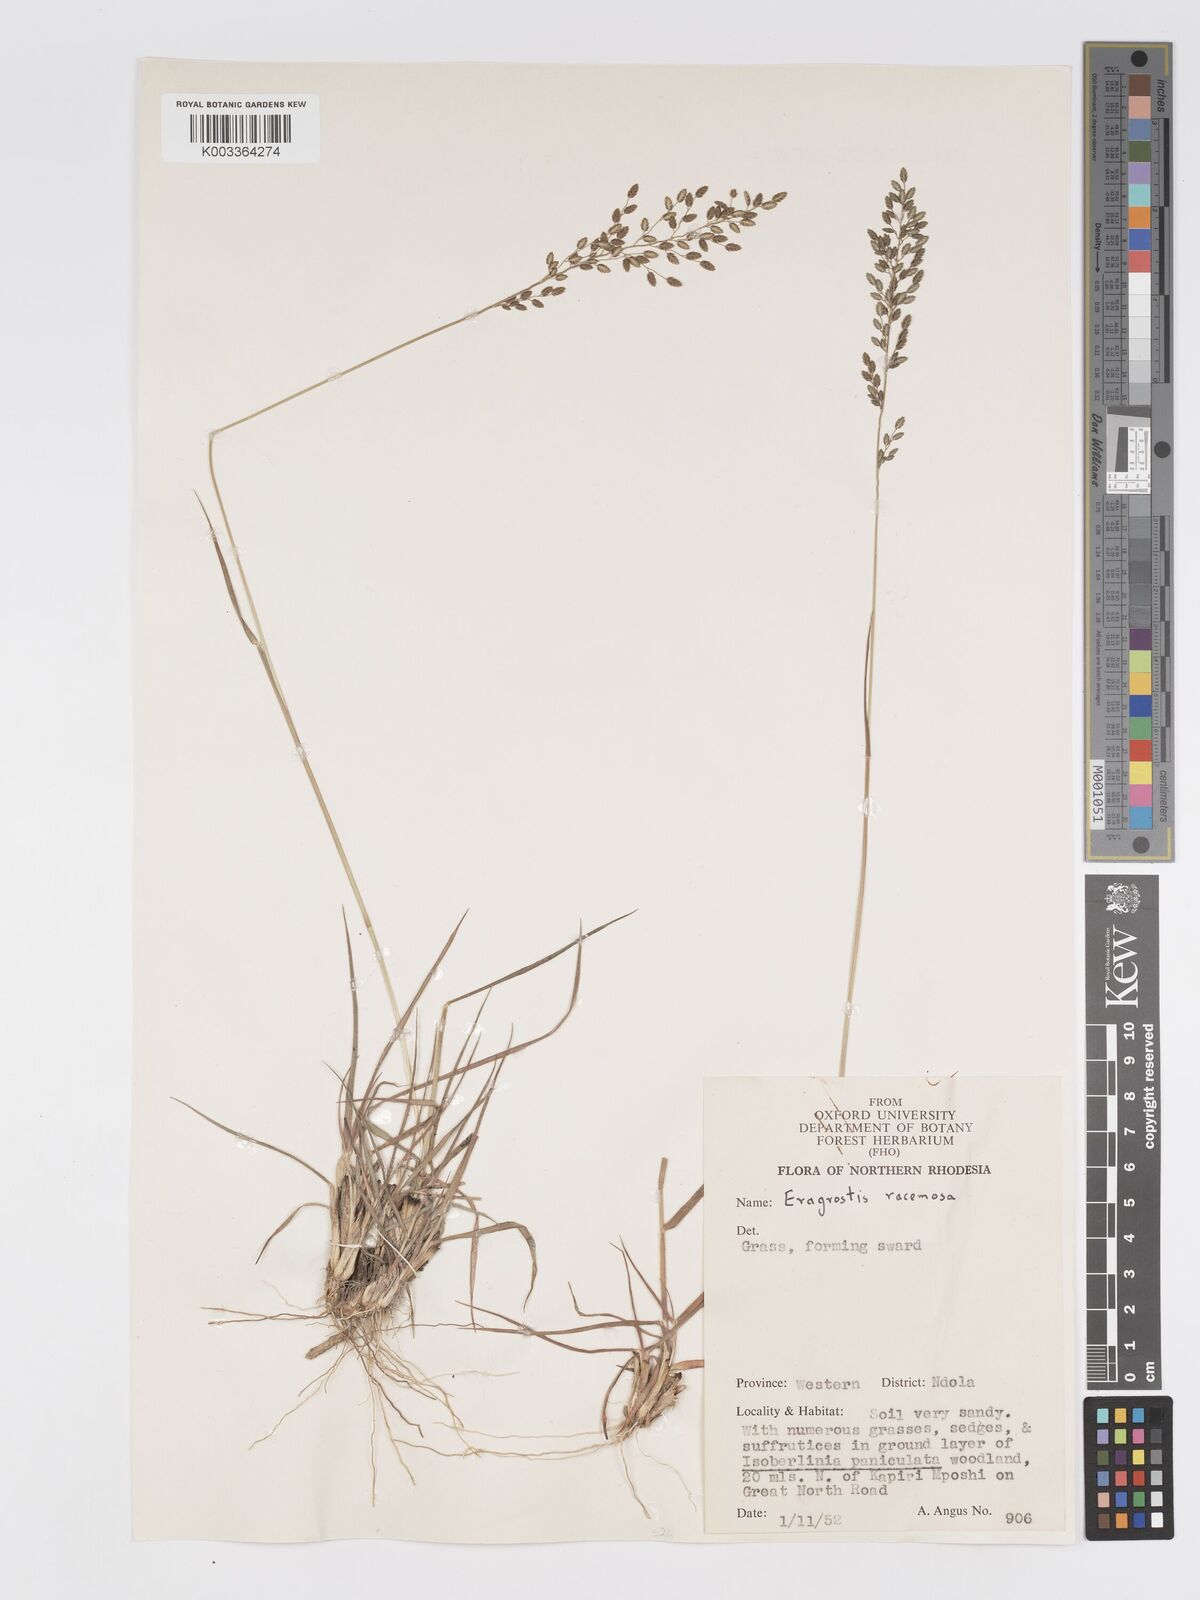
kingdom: Plantae
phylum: Tracheophyta
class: Liliopsida
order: Poales
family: Poaceae
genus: Eragrostis
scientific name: Eragrostis racemosa
